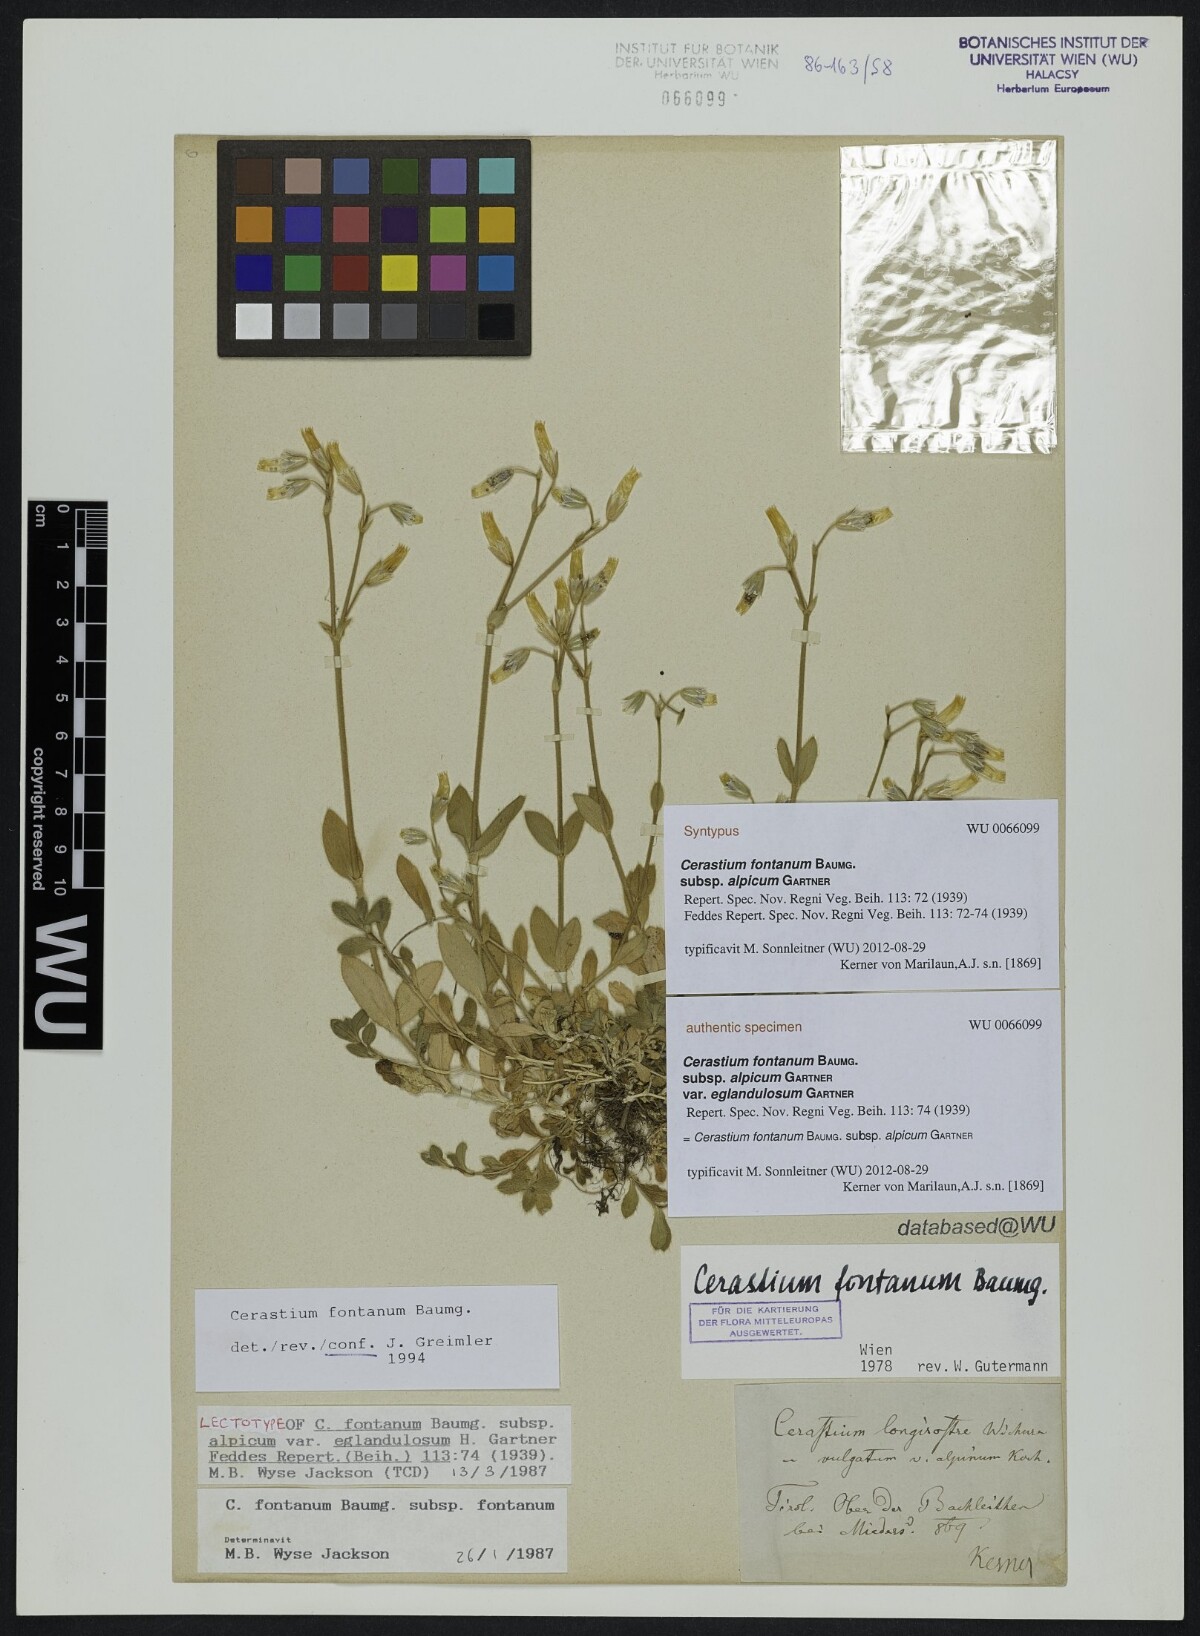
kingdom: Plantae
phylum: Tracheophyta
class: Magnoliopsida
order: Caryophyllales
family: Caryophyllaceae
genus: Cerastium
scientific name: Cerastium fontanum
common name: Common mouse-ear
